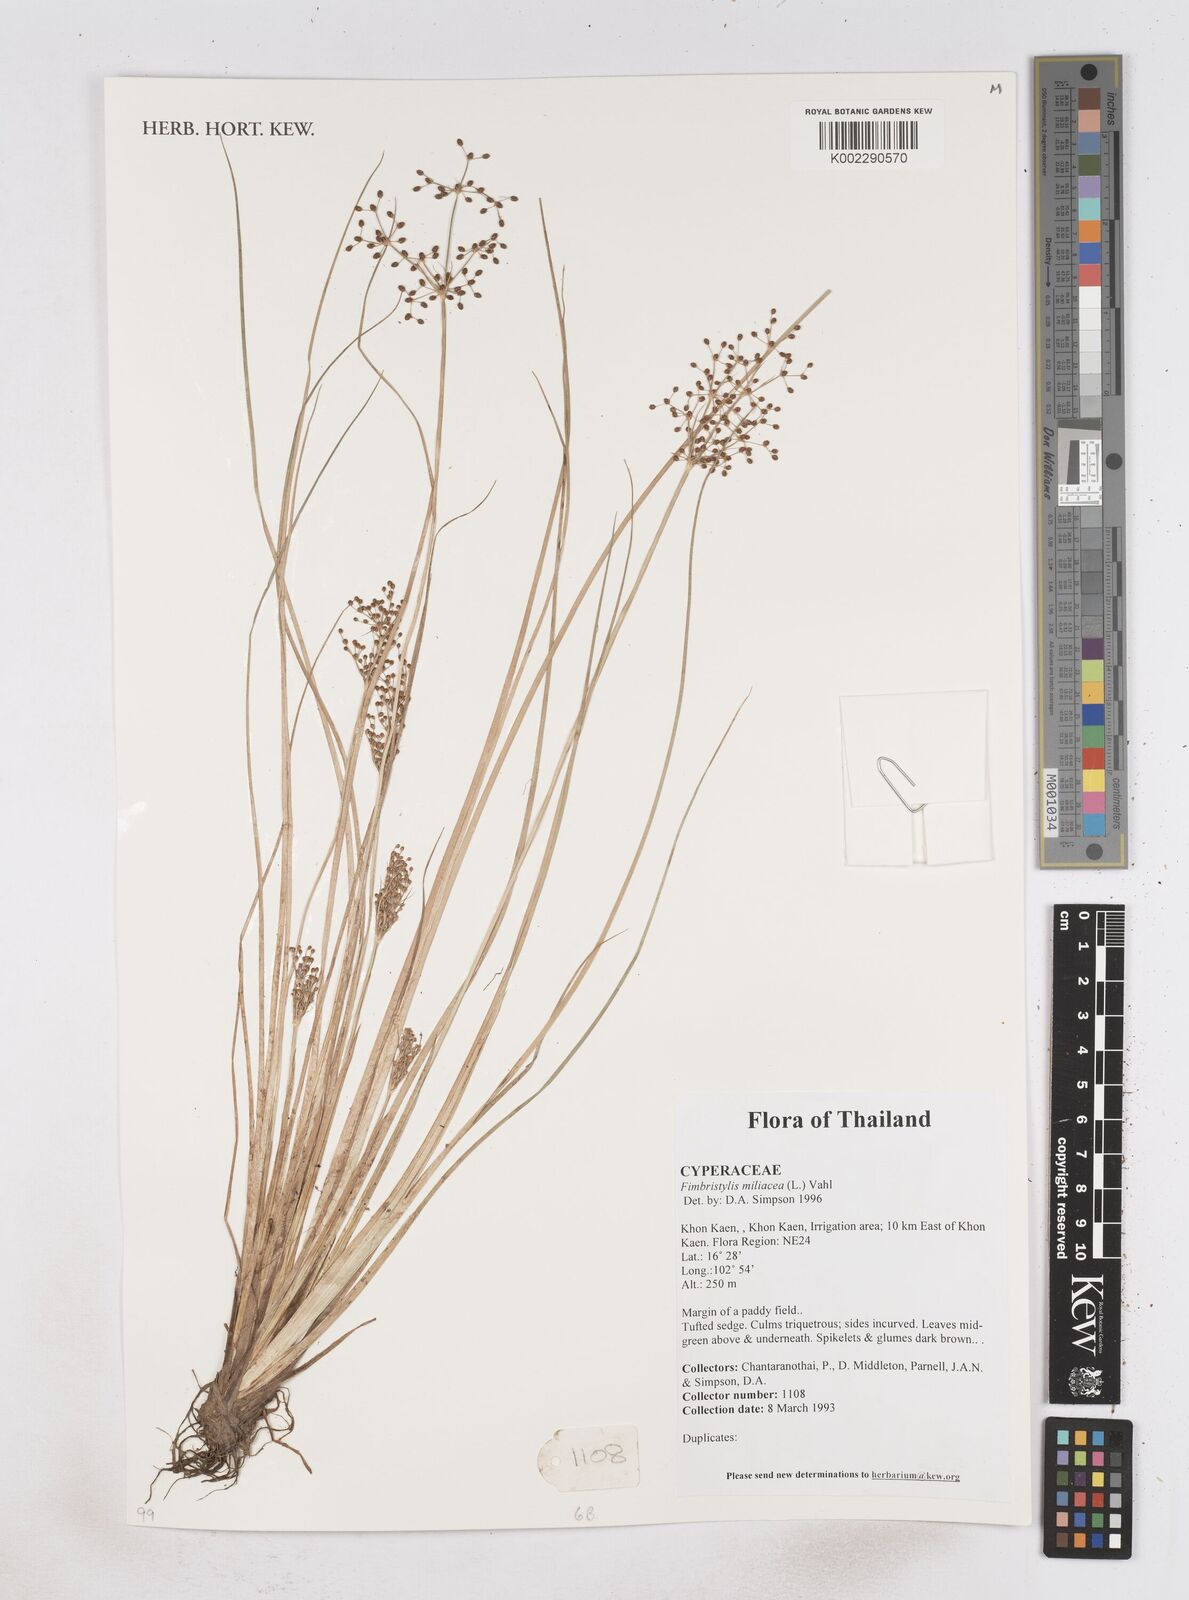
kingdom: Plantae
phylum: Tracheophyta
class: Liliopsida
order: Poales
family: Cyperaceae
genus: Fimbristylis
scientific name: Fimbristylis quinquangularis
